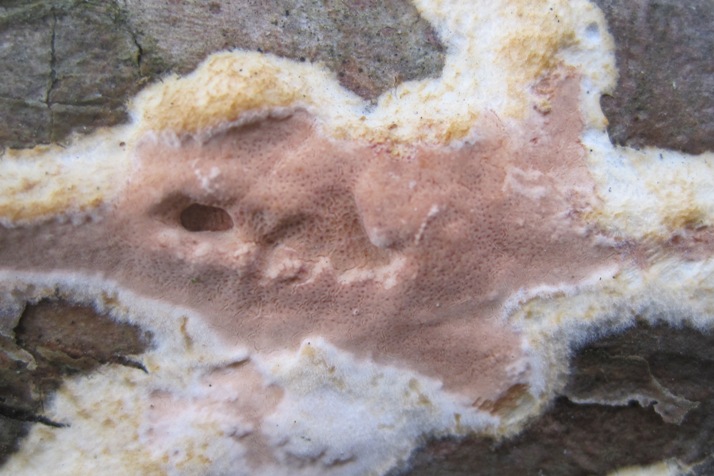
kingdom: Fungi
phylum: Basidiomycota
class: Agaricomycetes
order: Polyporales
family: Irpicaceae
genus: Meruliopsis
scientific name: Meruliopsis taxicola
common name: purpurbrun foldporesvamp
